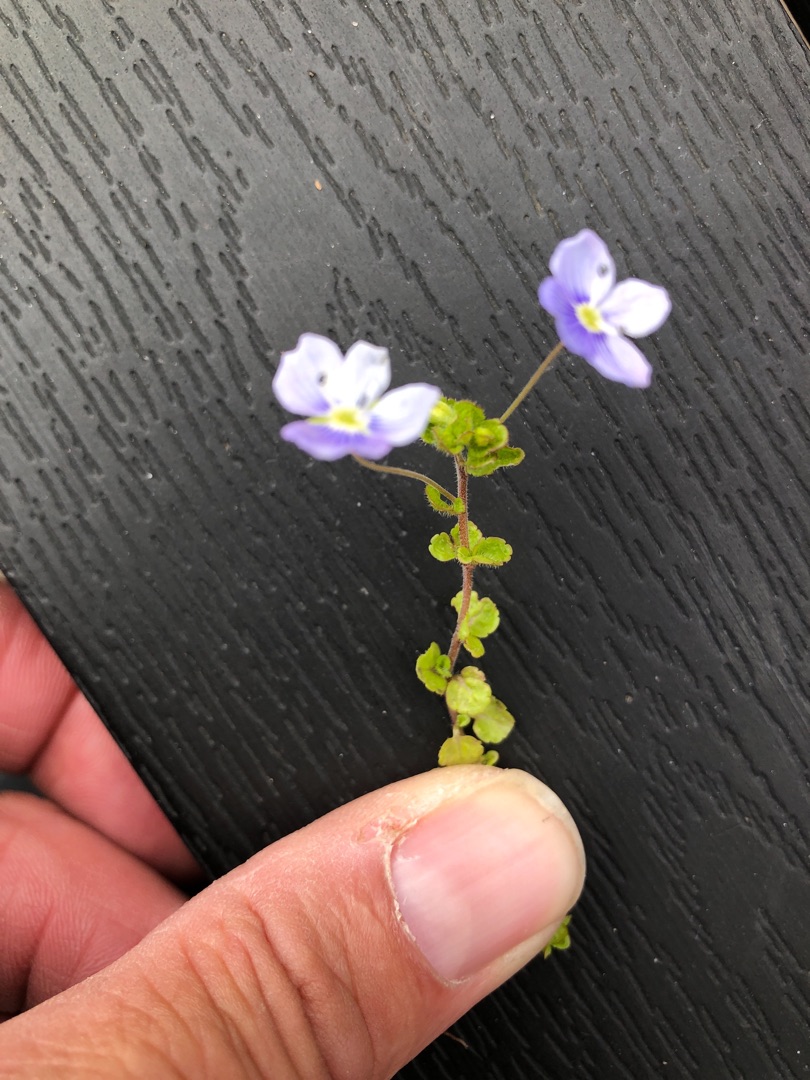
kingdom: Plantae
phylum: Tracheophyta
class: Magnoliopsida
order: Lamiales
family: Plantaginaceae
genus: Veronica
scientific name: Veronica filiformis
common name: Tråd-ærenpris
